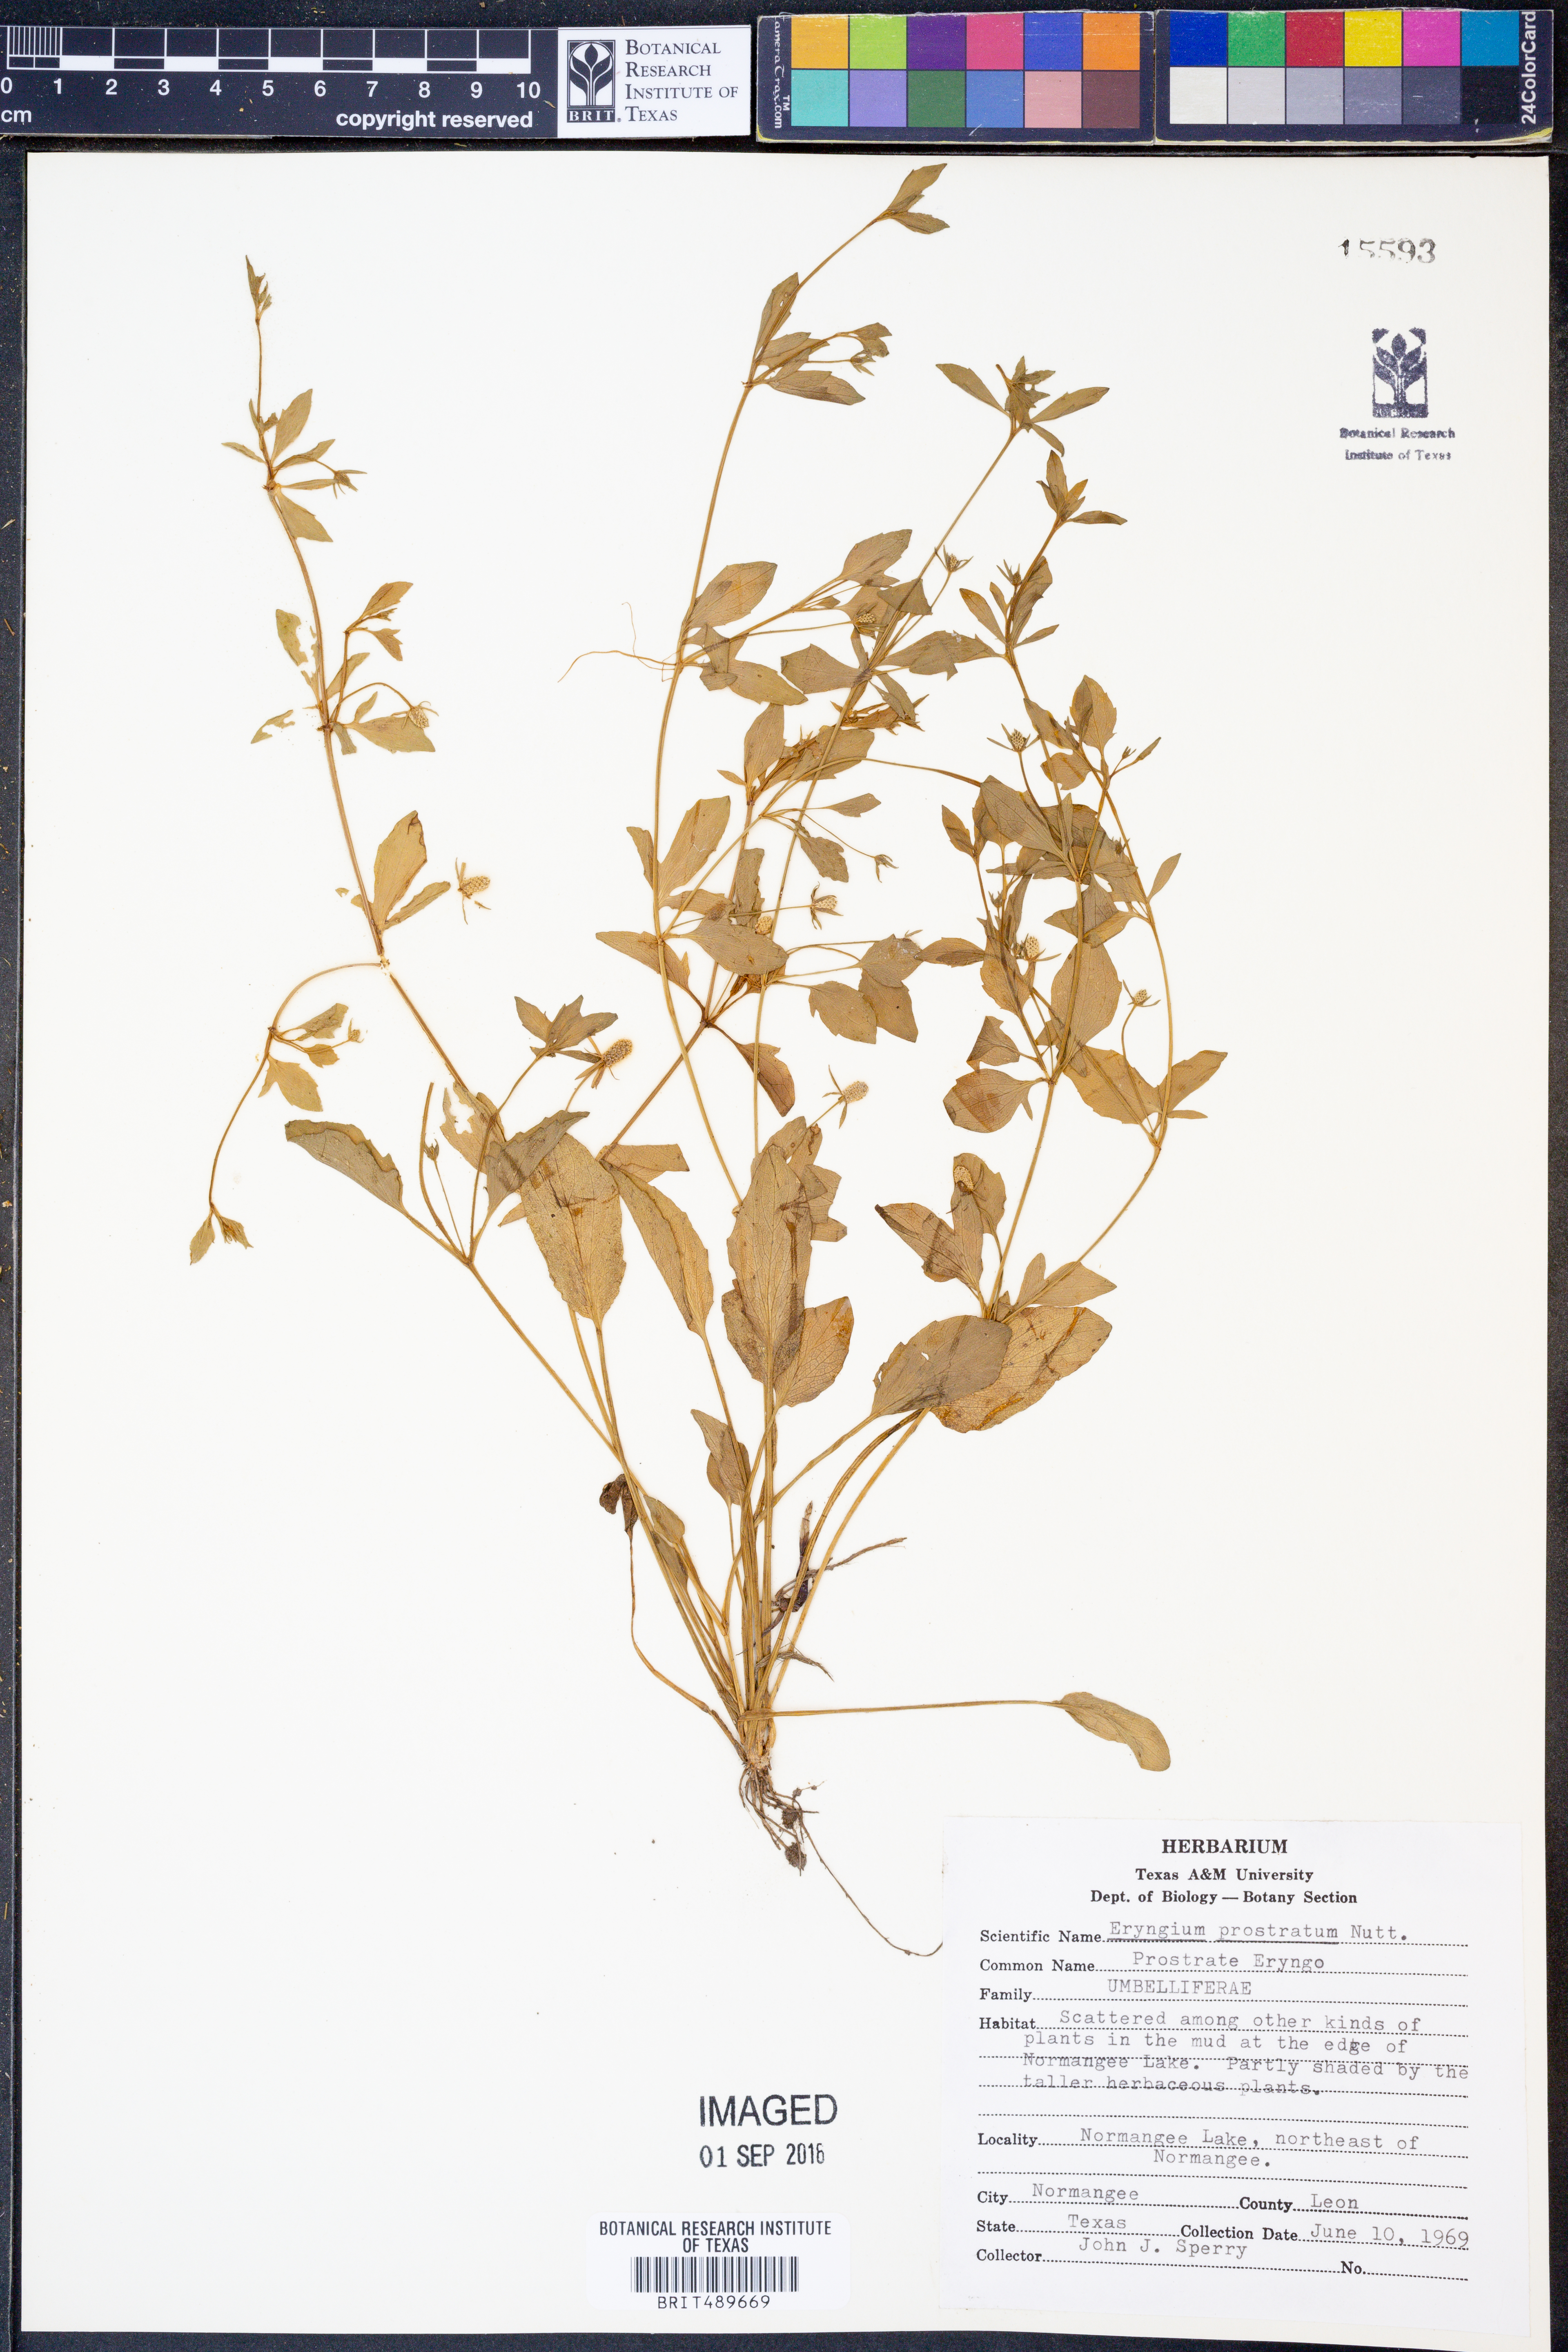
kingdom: Plantae
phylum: Tracheophyta
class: Magnoliopsida
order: Apiales
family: Apiaceae
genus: Eryngium
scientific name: Eryngium prostratum
